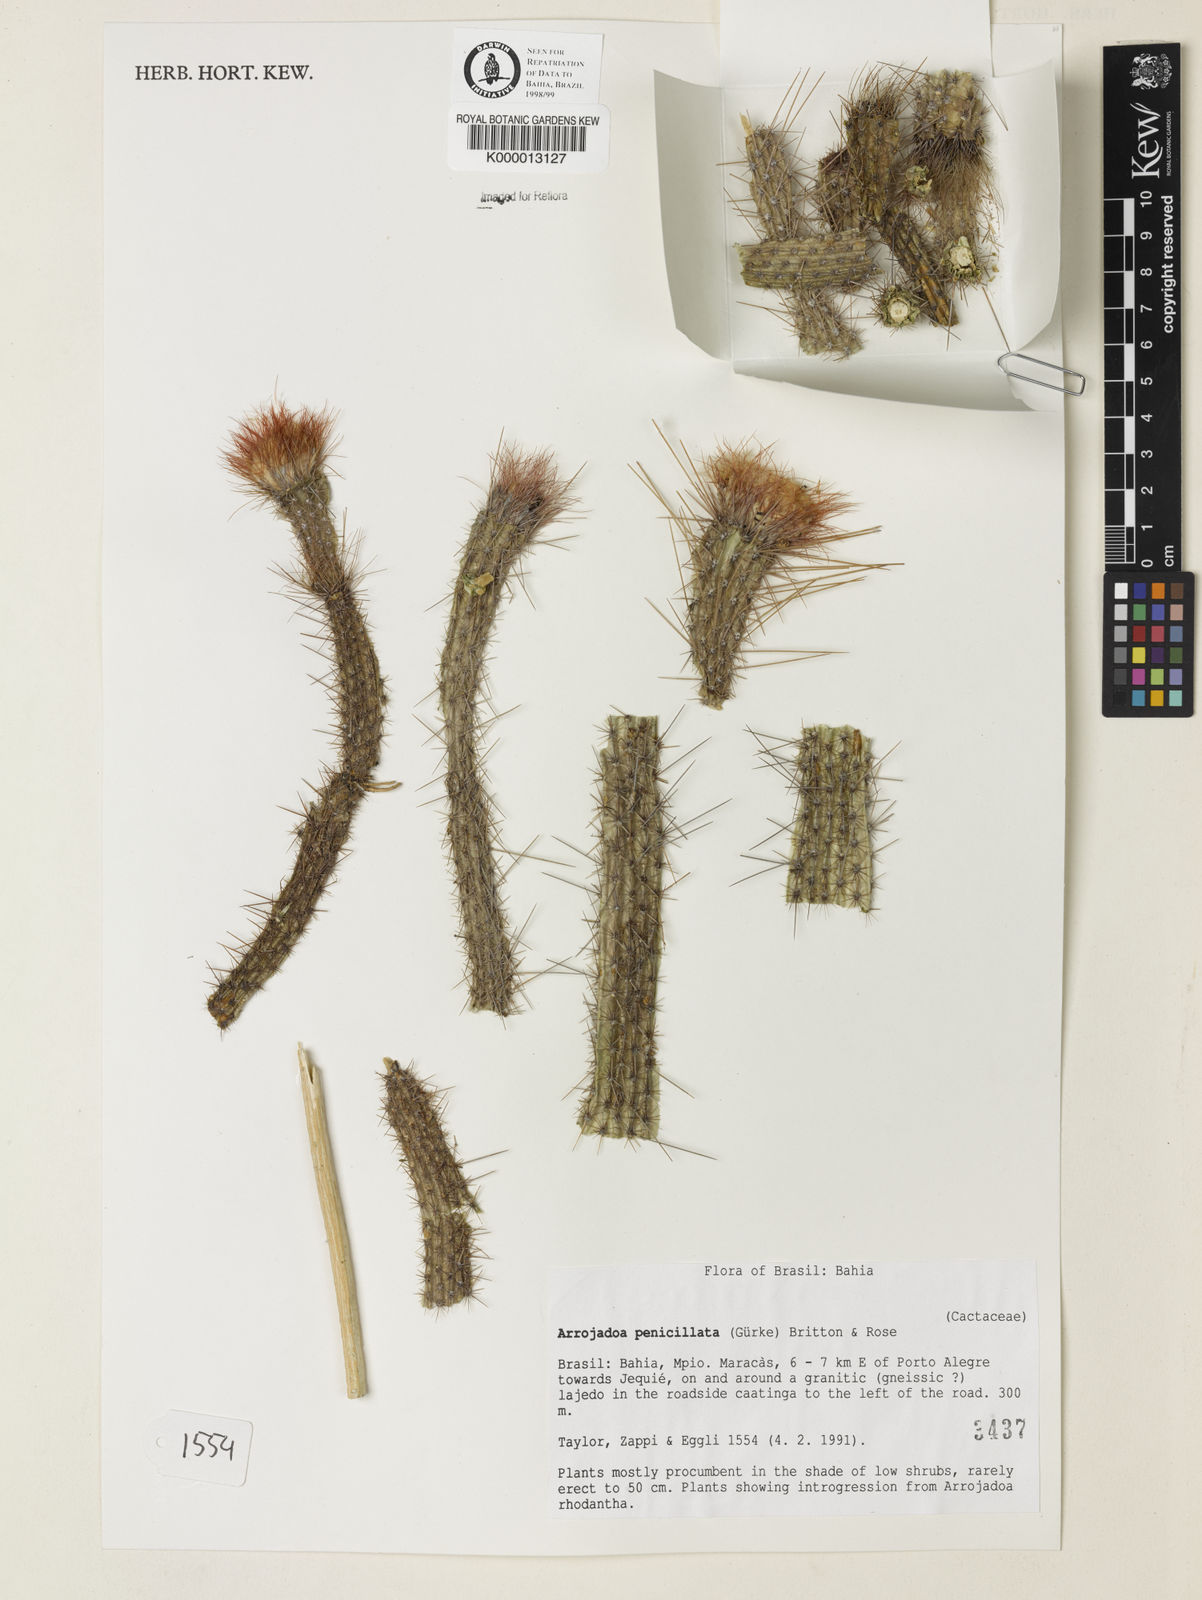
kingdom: Plantae
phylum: Tracheophyta
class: Magnoliopsida
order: Caryophyllales
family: Cactaceae
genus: Arrojadoa
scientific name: Arrojadoa penicillata
